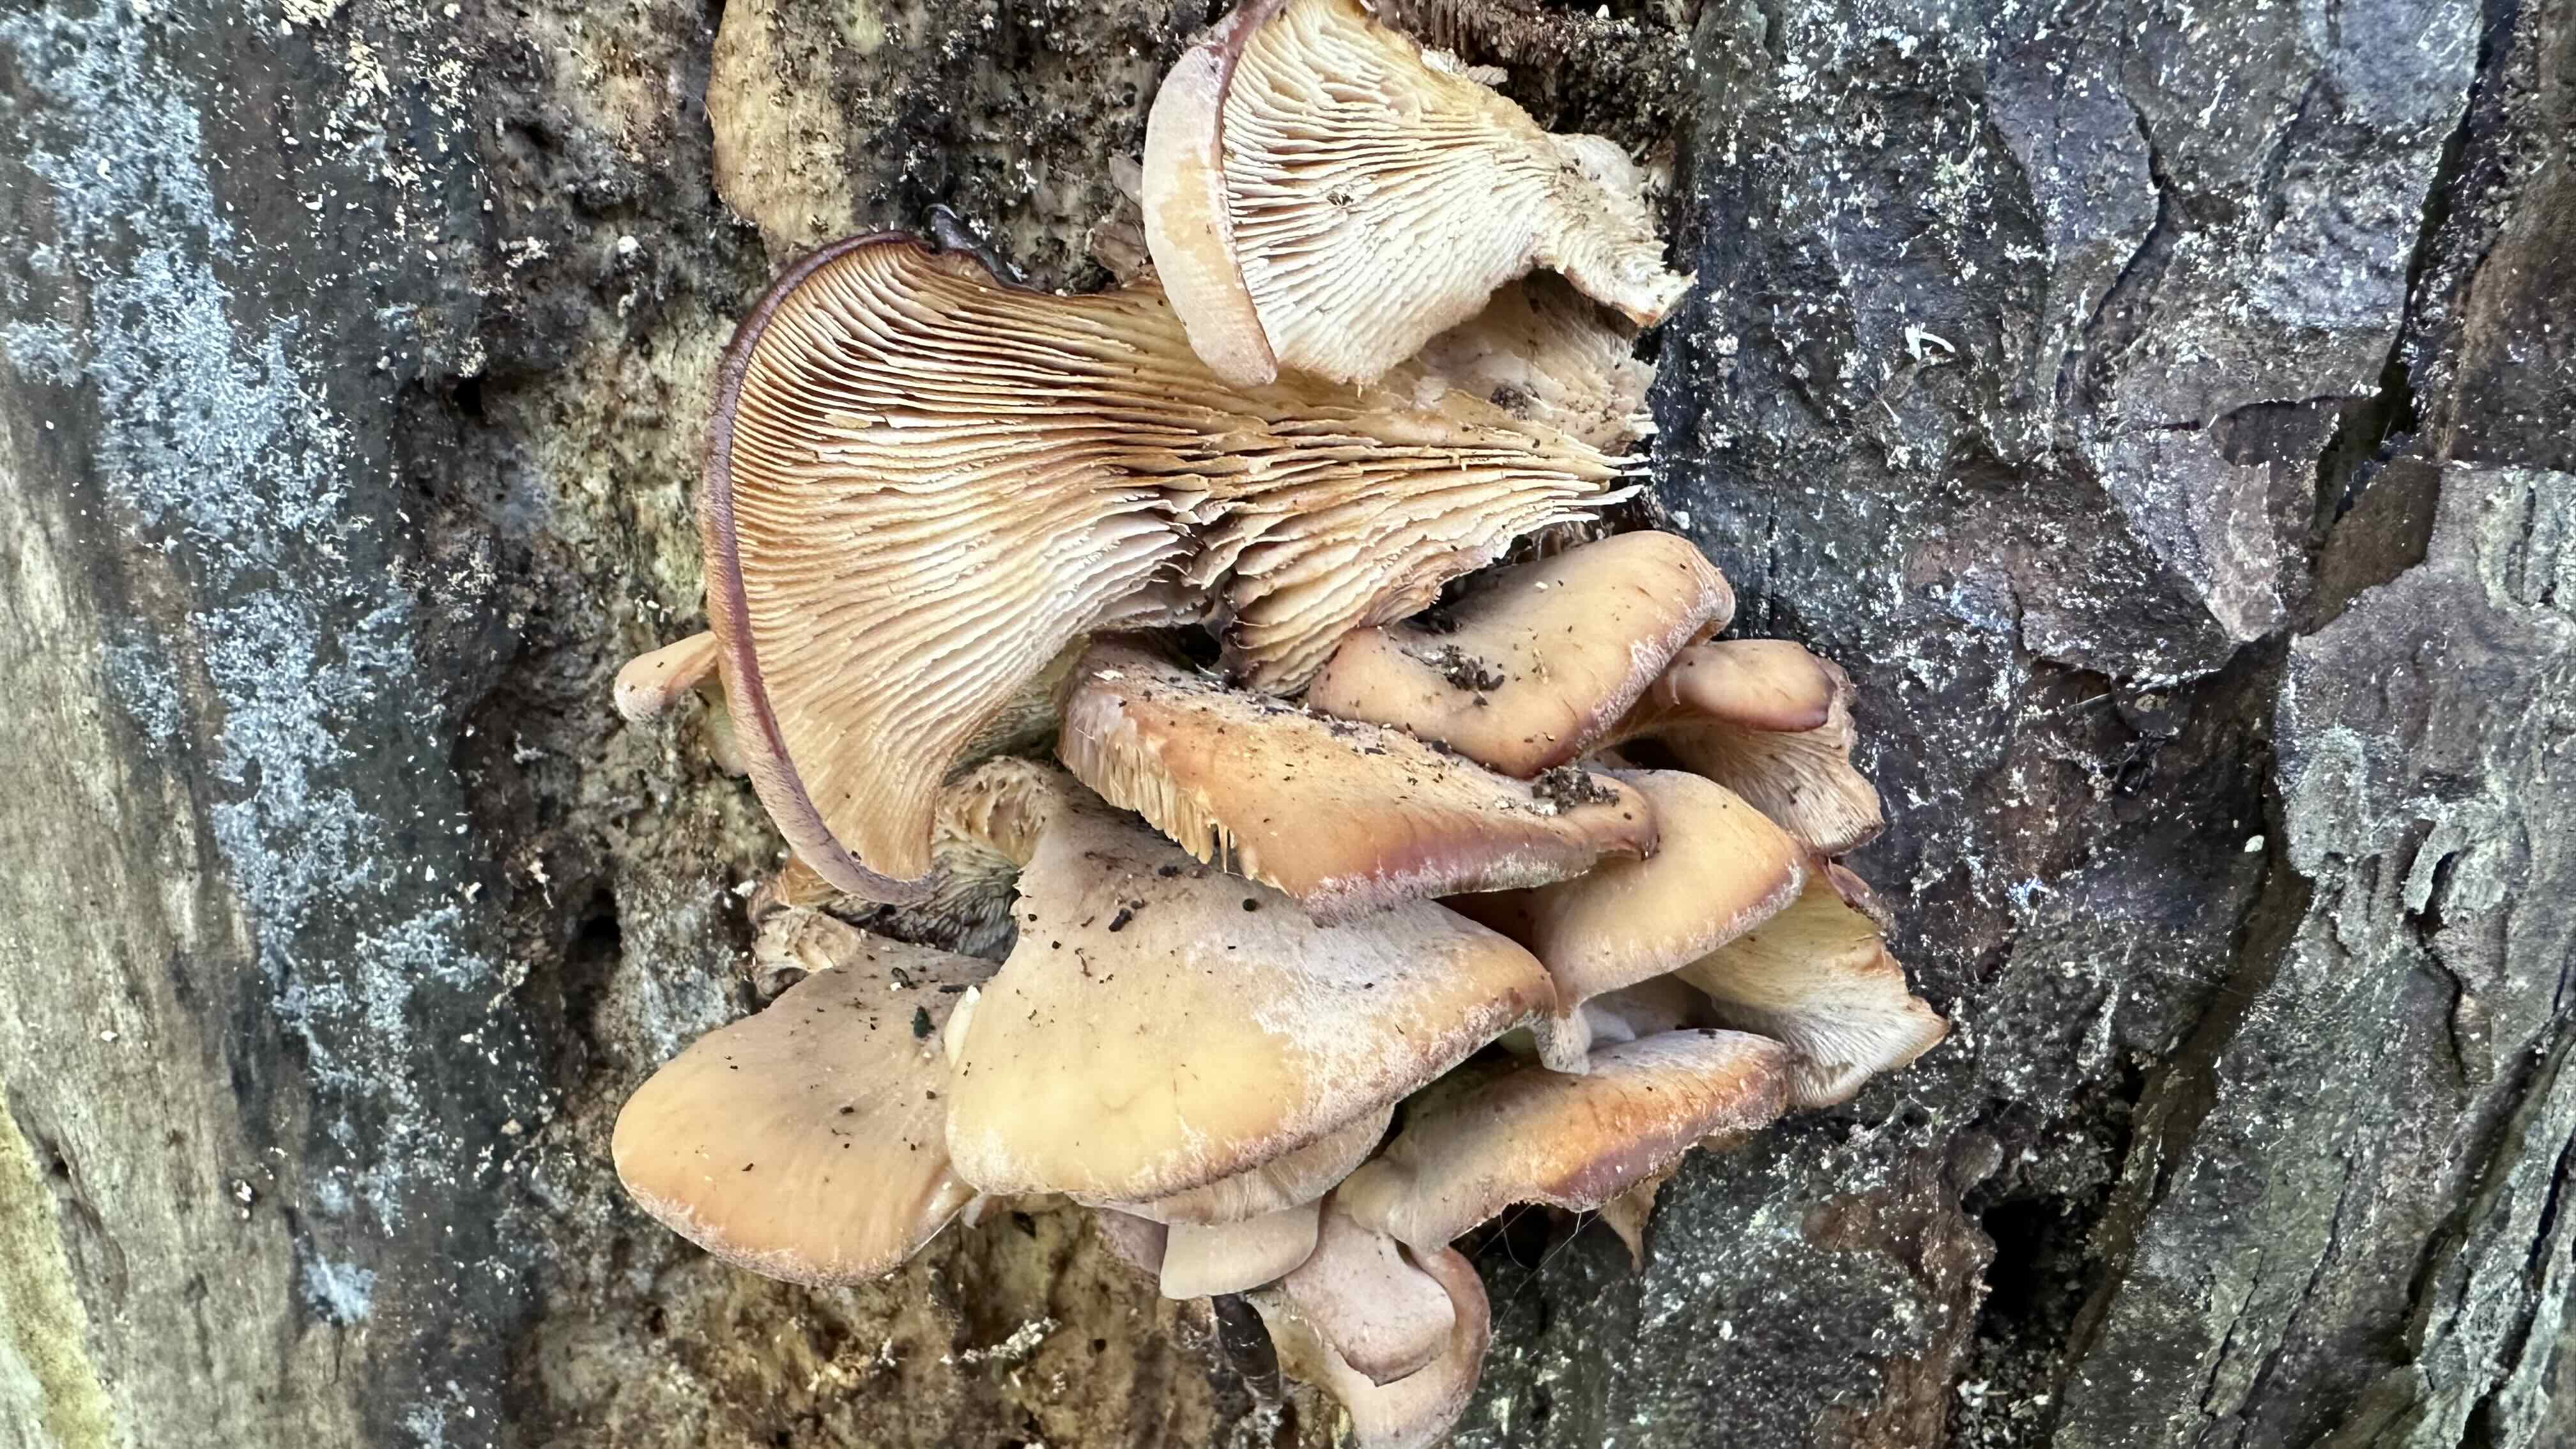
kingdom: Fungi
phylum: Basidiomycota
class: Agaricomycetes
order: Russulales
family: Auriscalpiaceae
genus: Lentinellus
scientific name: Lentinellus ursinus
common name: børstehåret savbladhat
